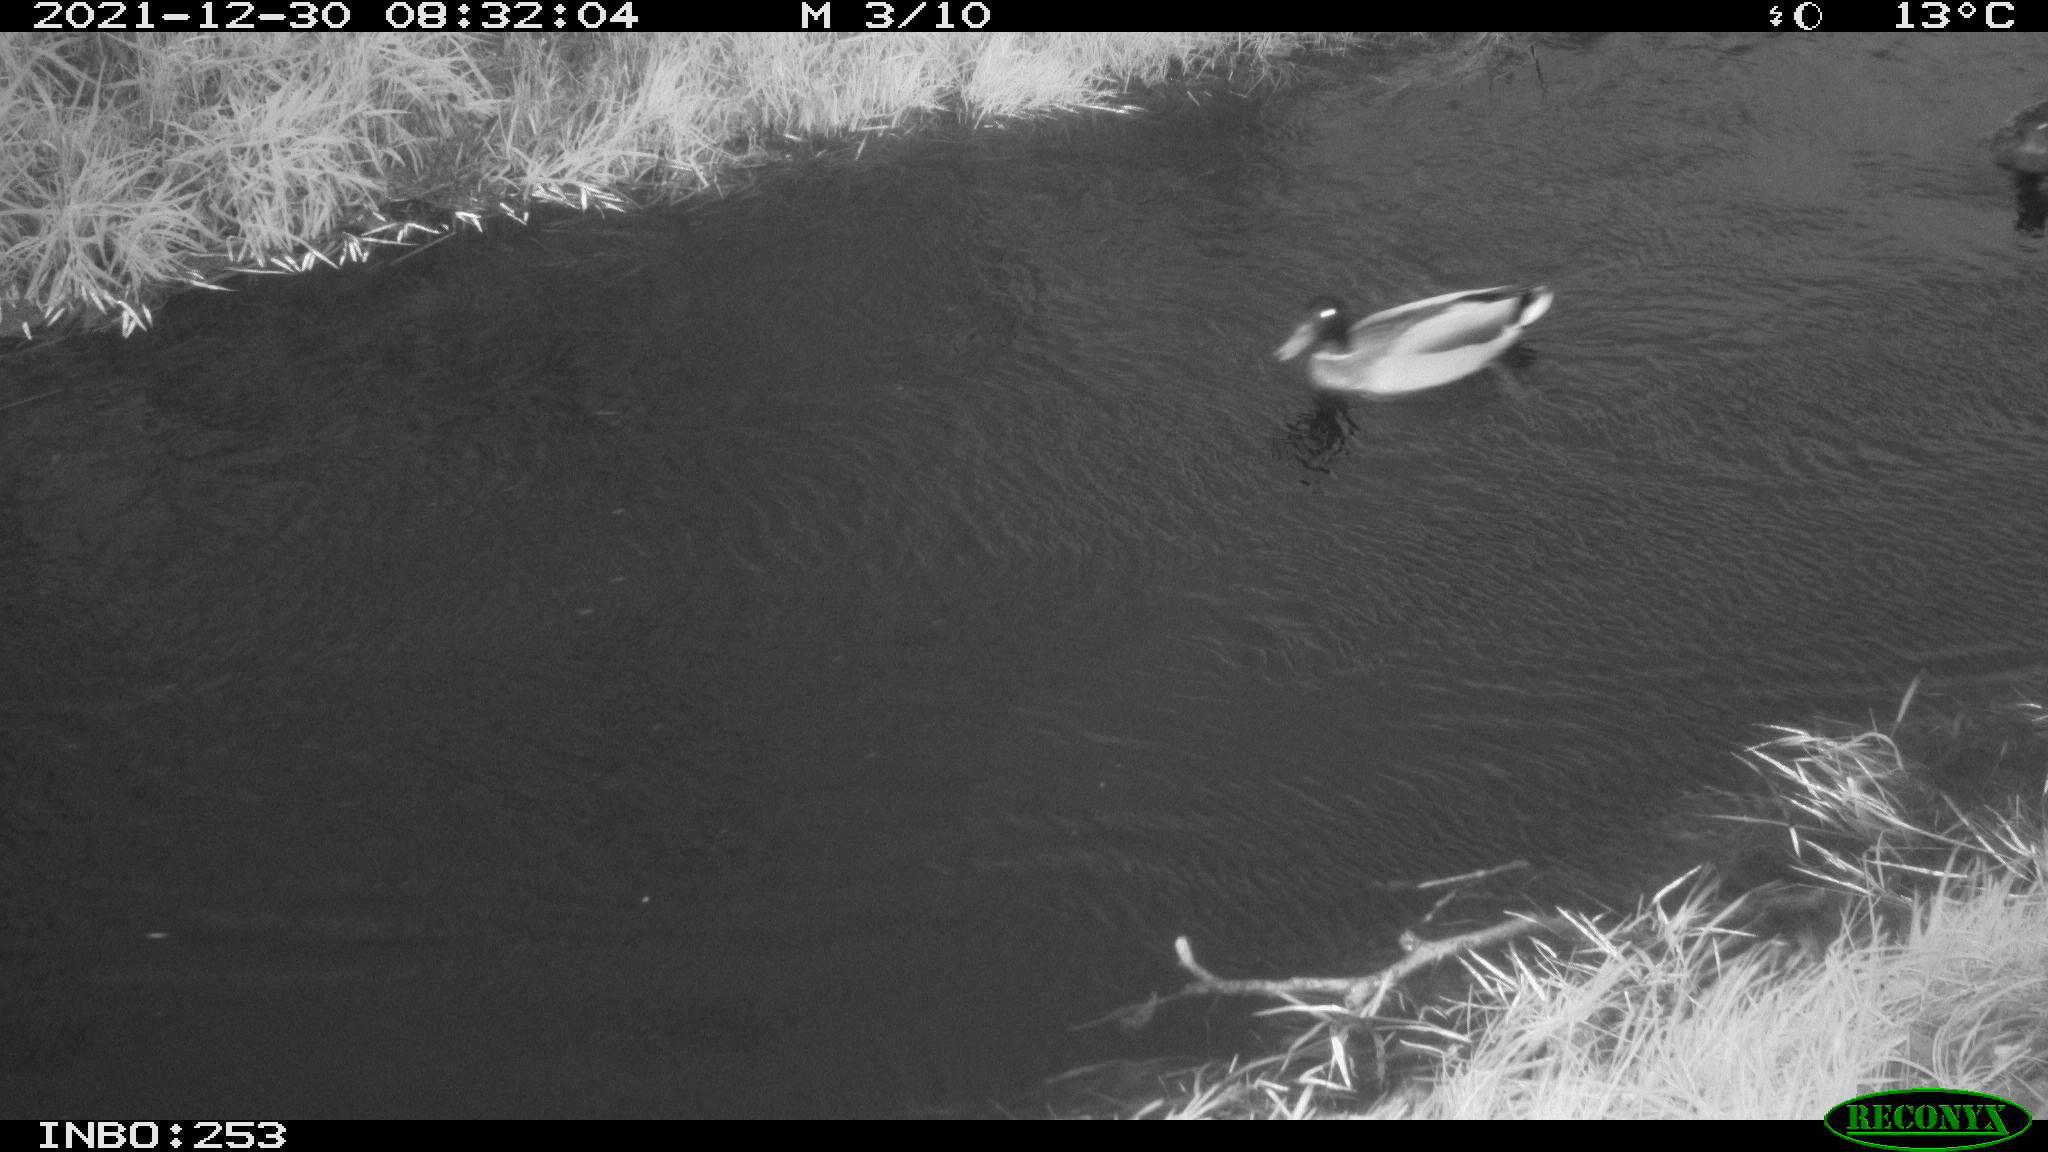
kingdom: Animalia
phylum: Chordata
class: Aves
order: Anseriformes
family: Anatidae
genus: Anas
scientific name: Anas
